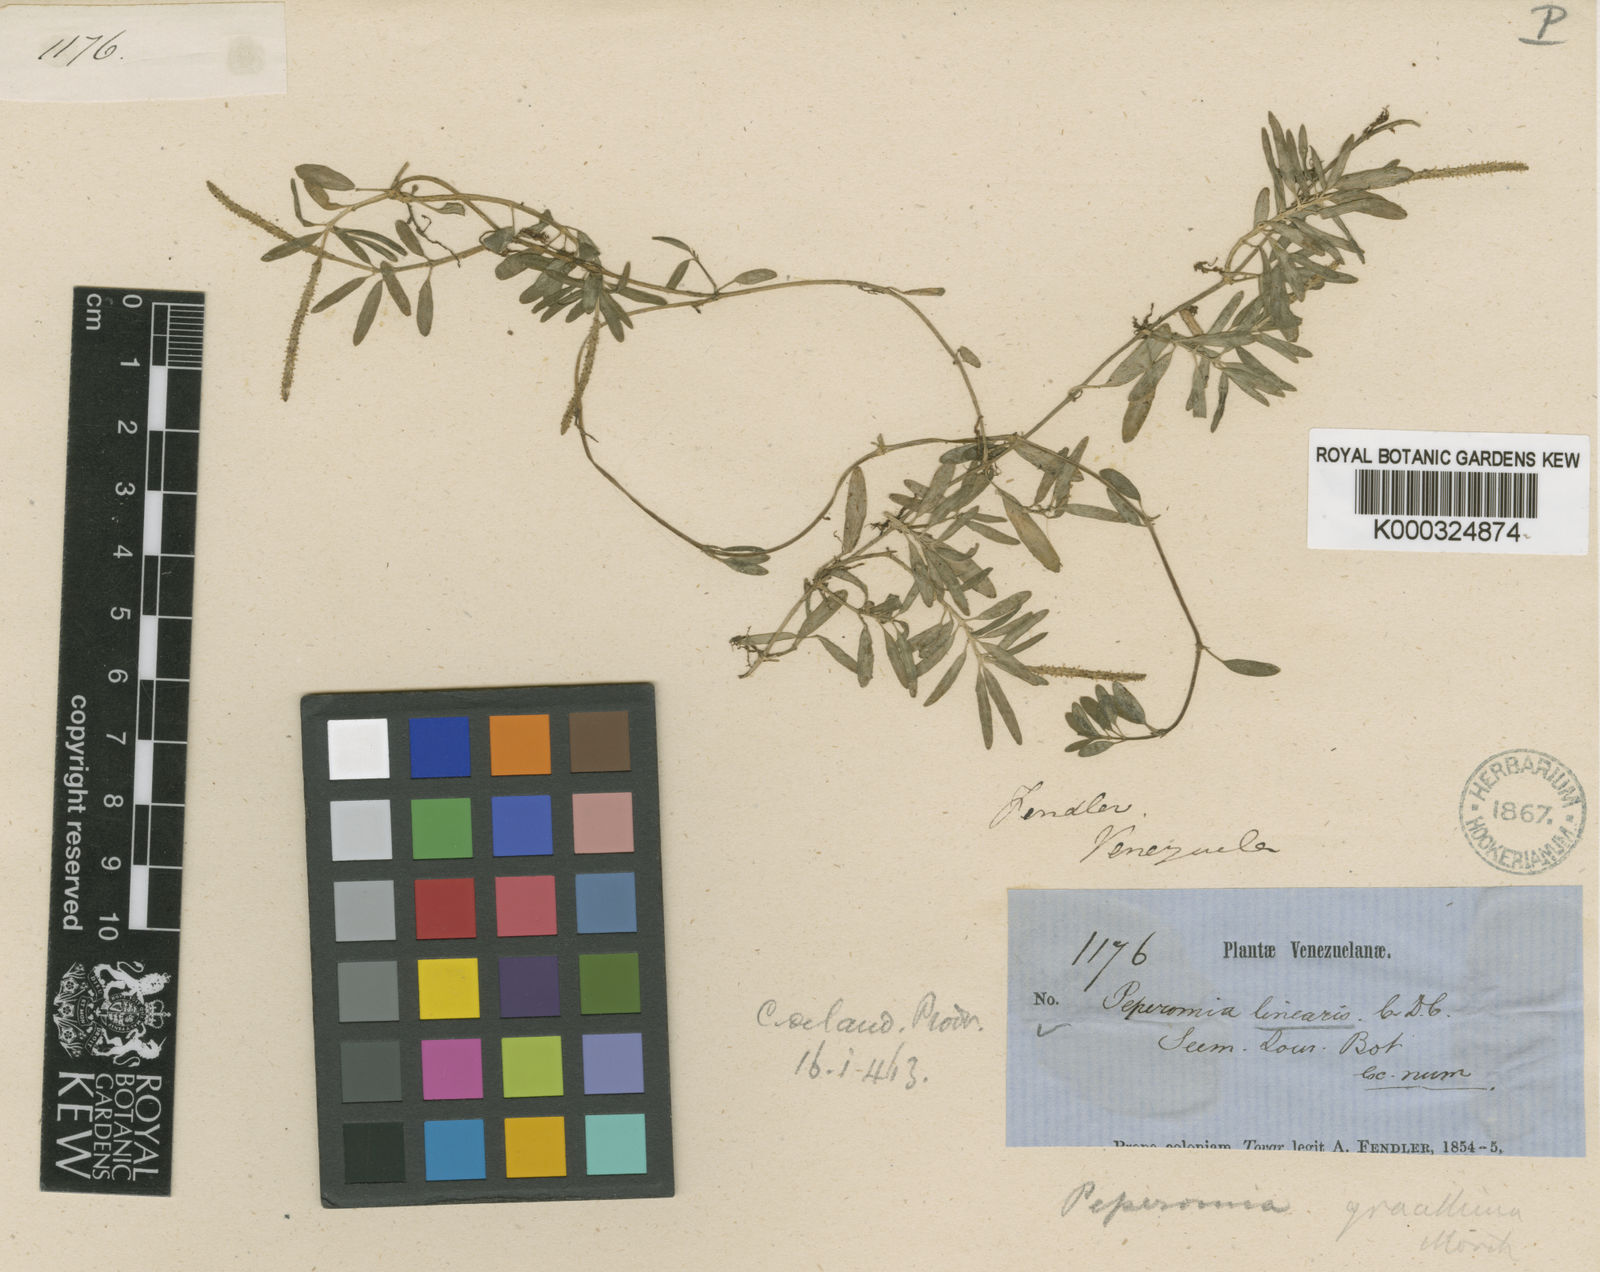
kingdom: Plantae
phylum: Tracheophyta
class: Magnoliopsida
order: Piperales
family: Piperaceae
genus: Peperomia
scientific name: Peperomia swartziana
